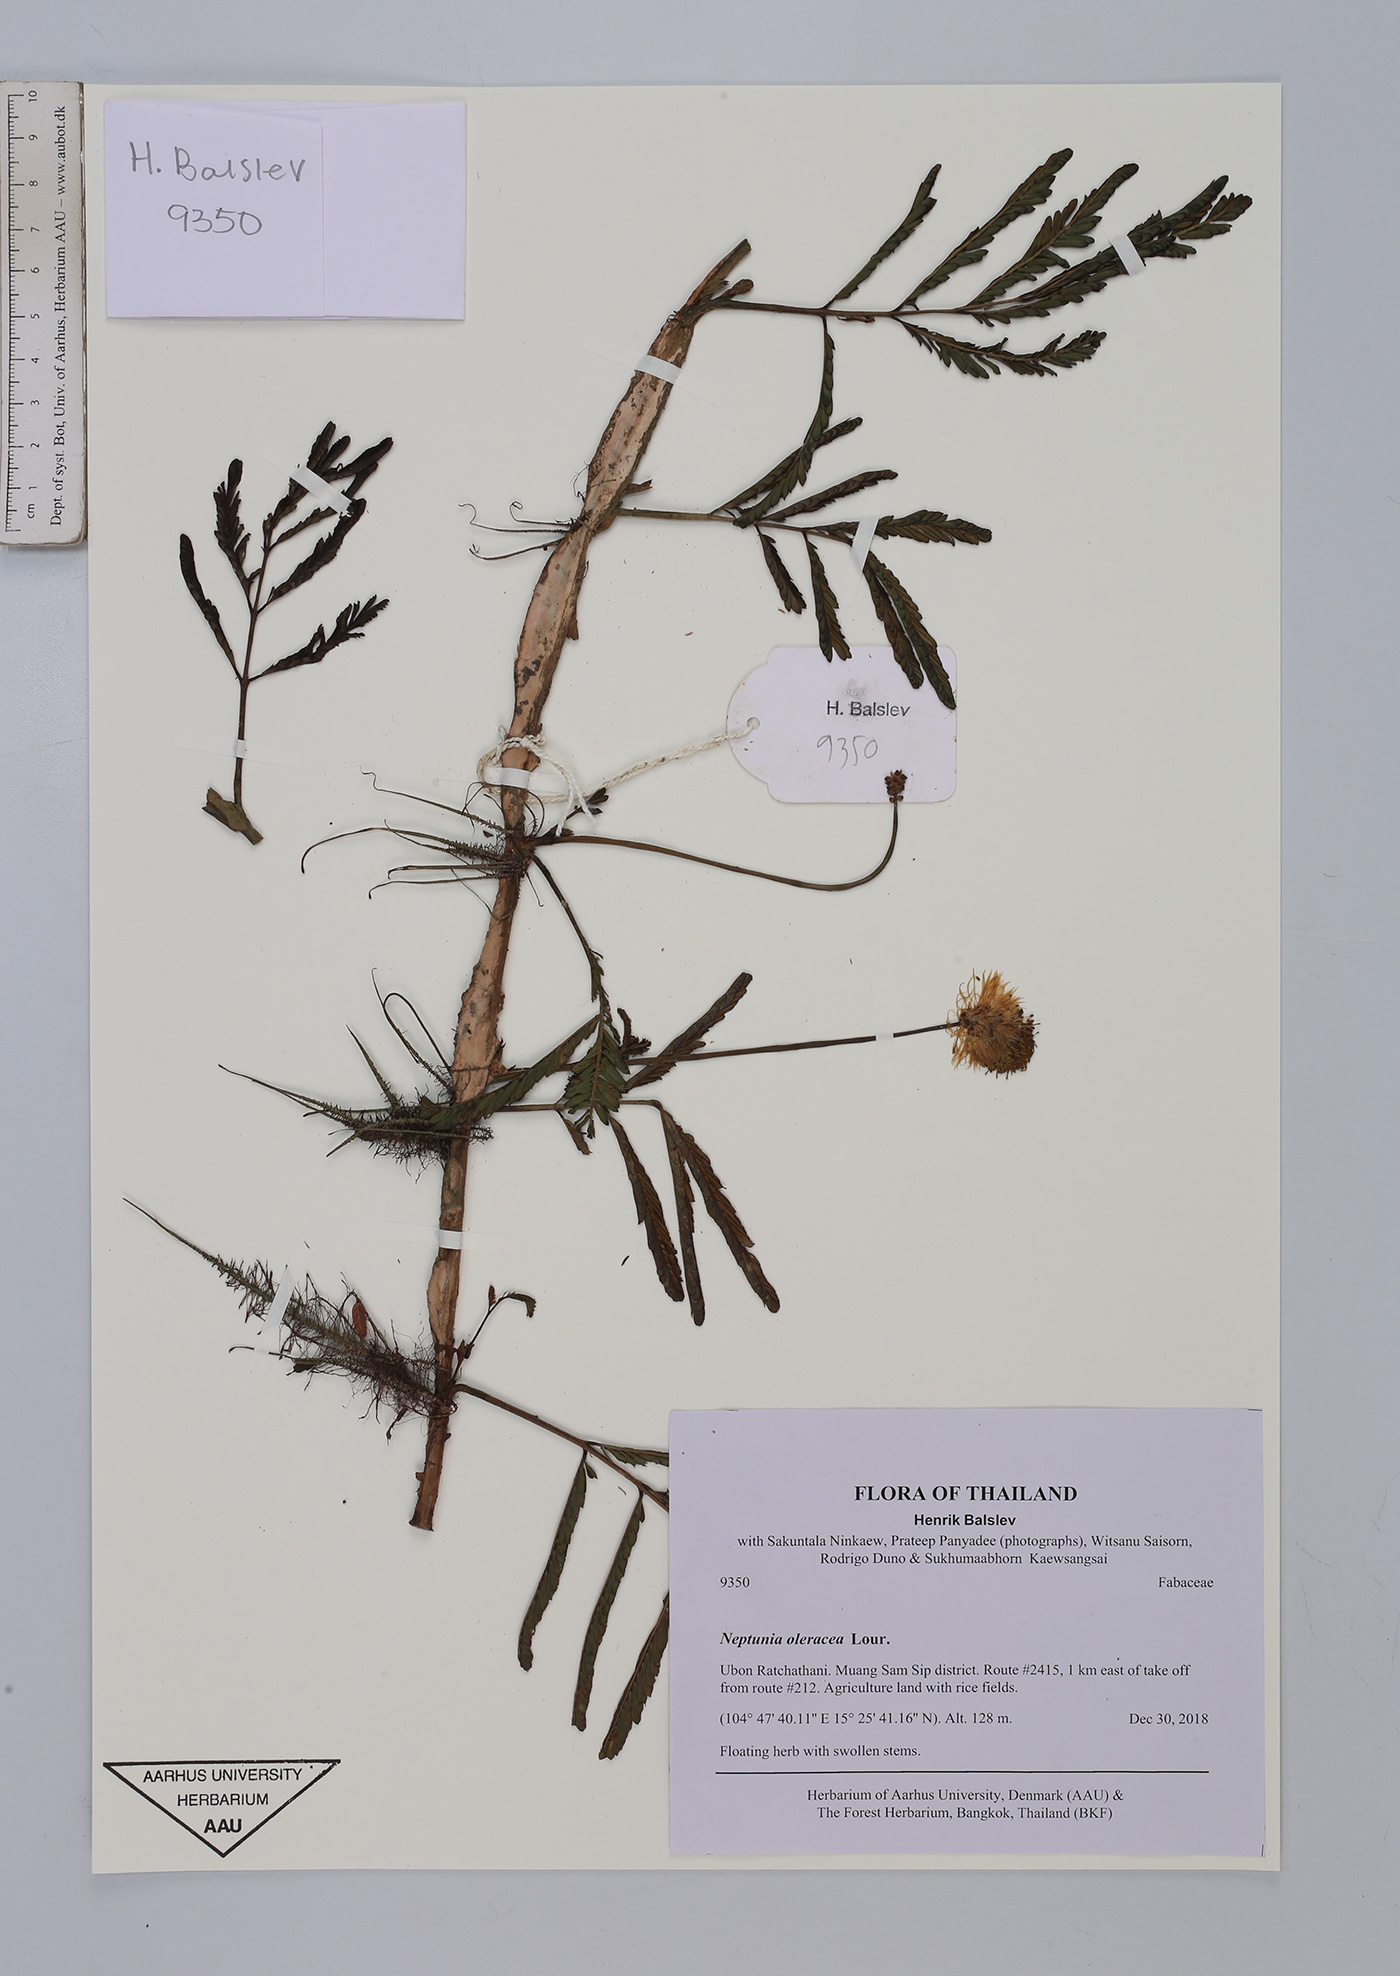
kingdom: Plantae
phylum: Tracheophyta
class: Magnoliopsida
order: Fabales
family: Fabaceae
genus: Neptunia
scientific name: Neptunia prostrata
